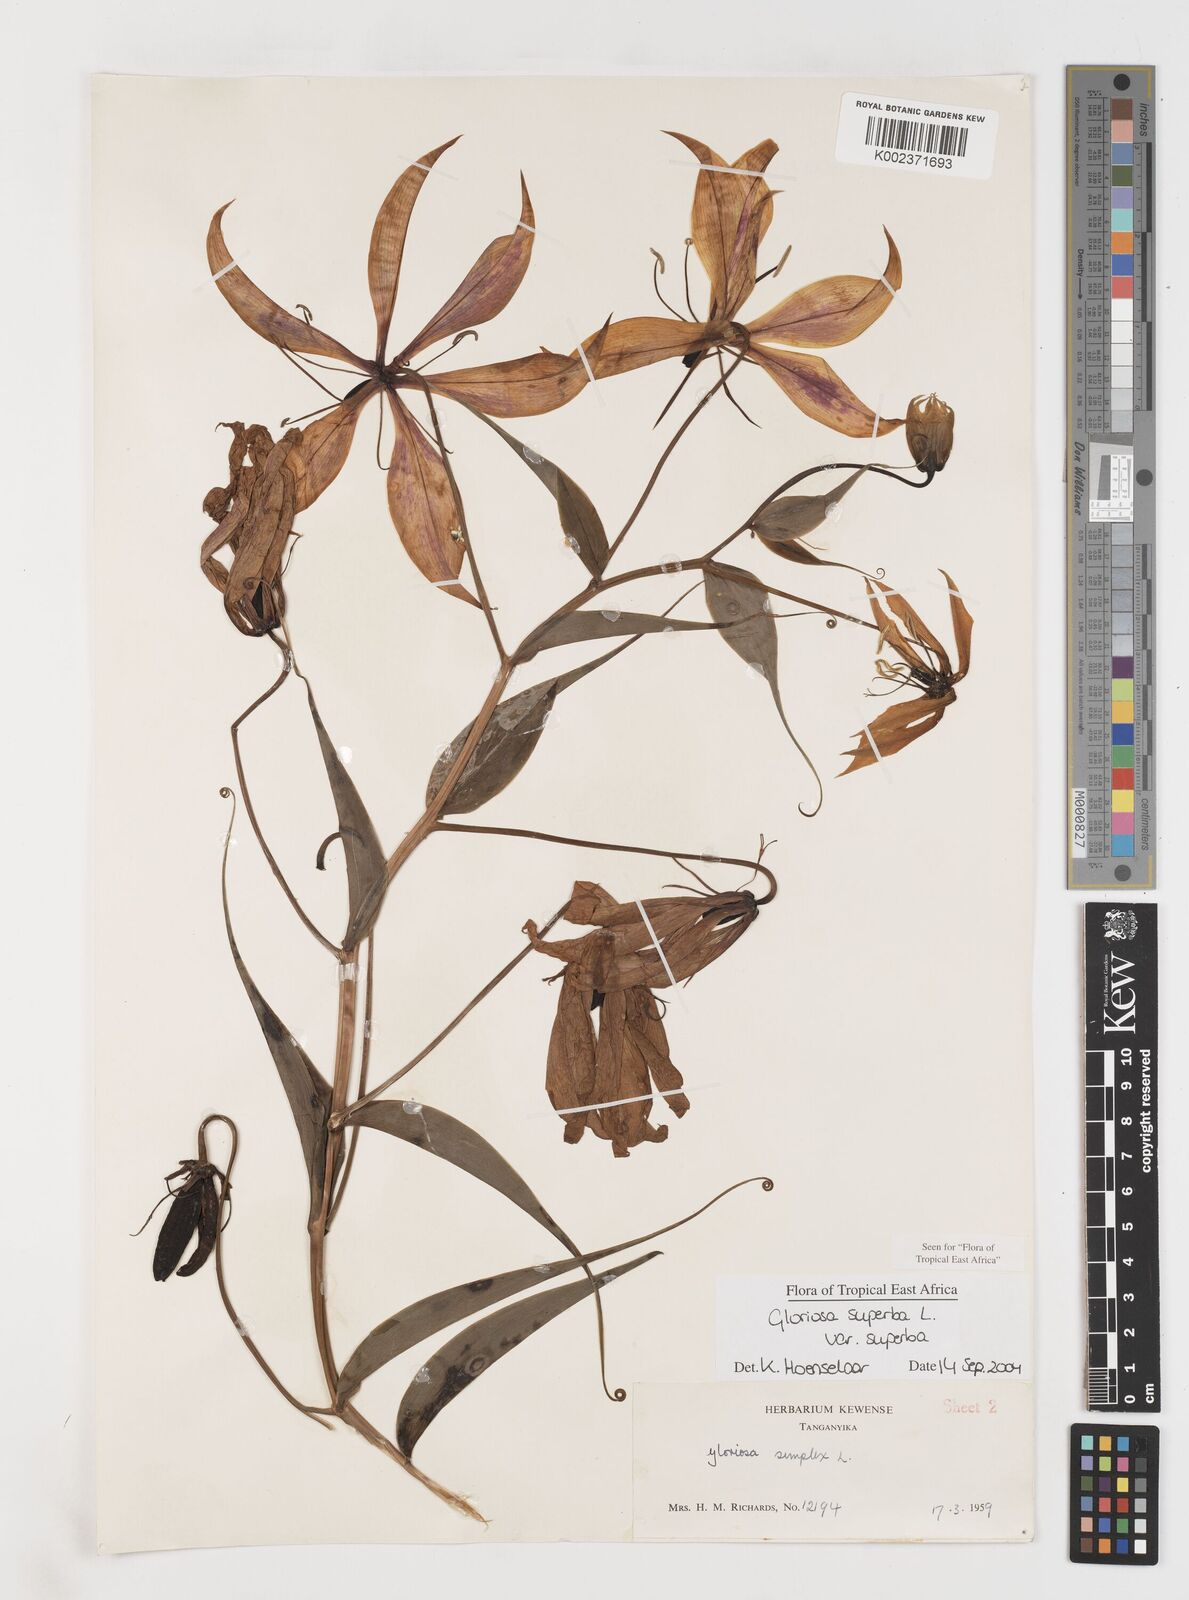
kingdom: Plantae
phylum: Tracheophyta
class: Liliopsida
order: Liliales
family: Colchicaceae
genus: Gloriosa
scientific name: Gloriosa simplex
